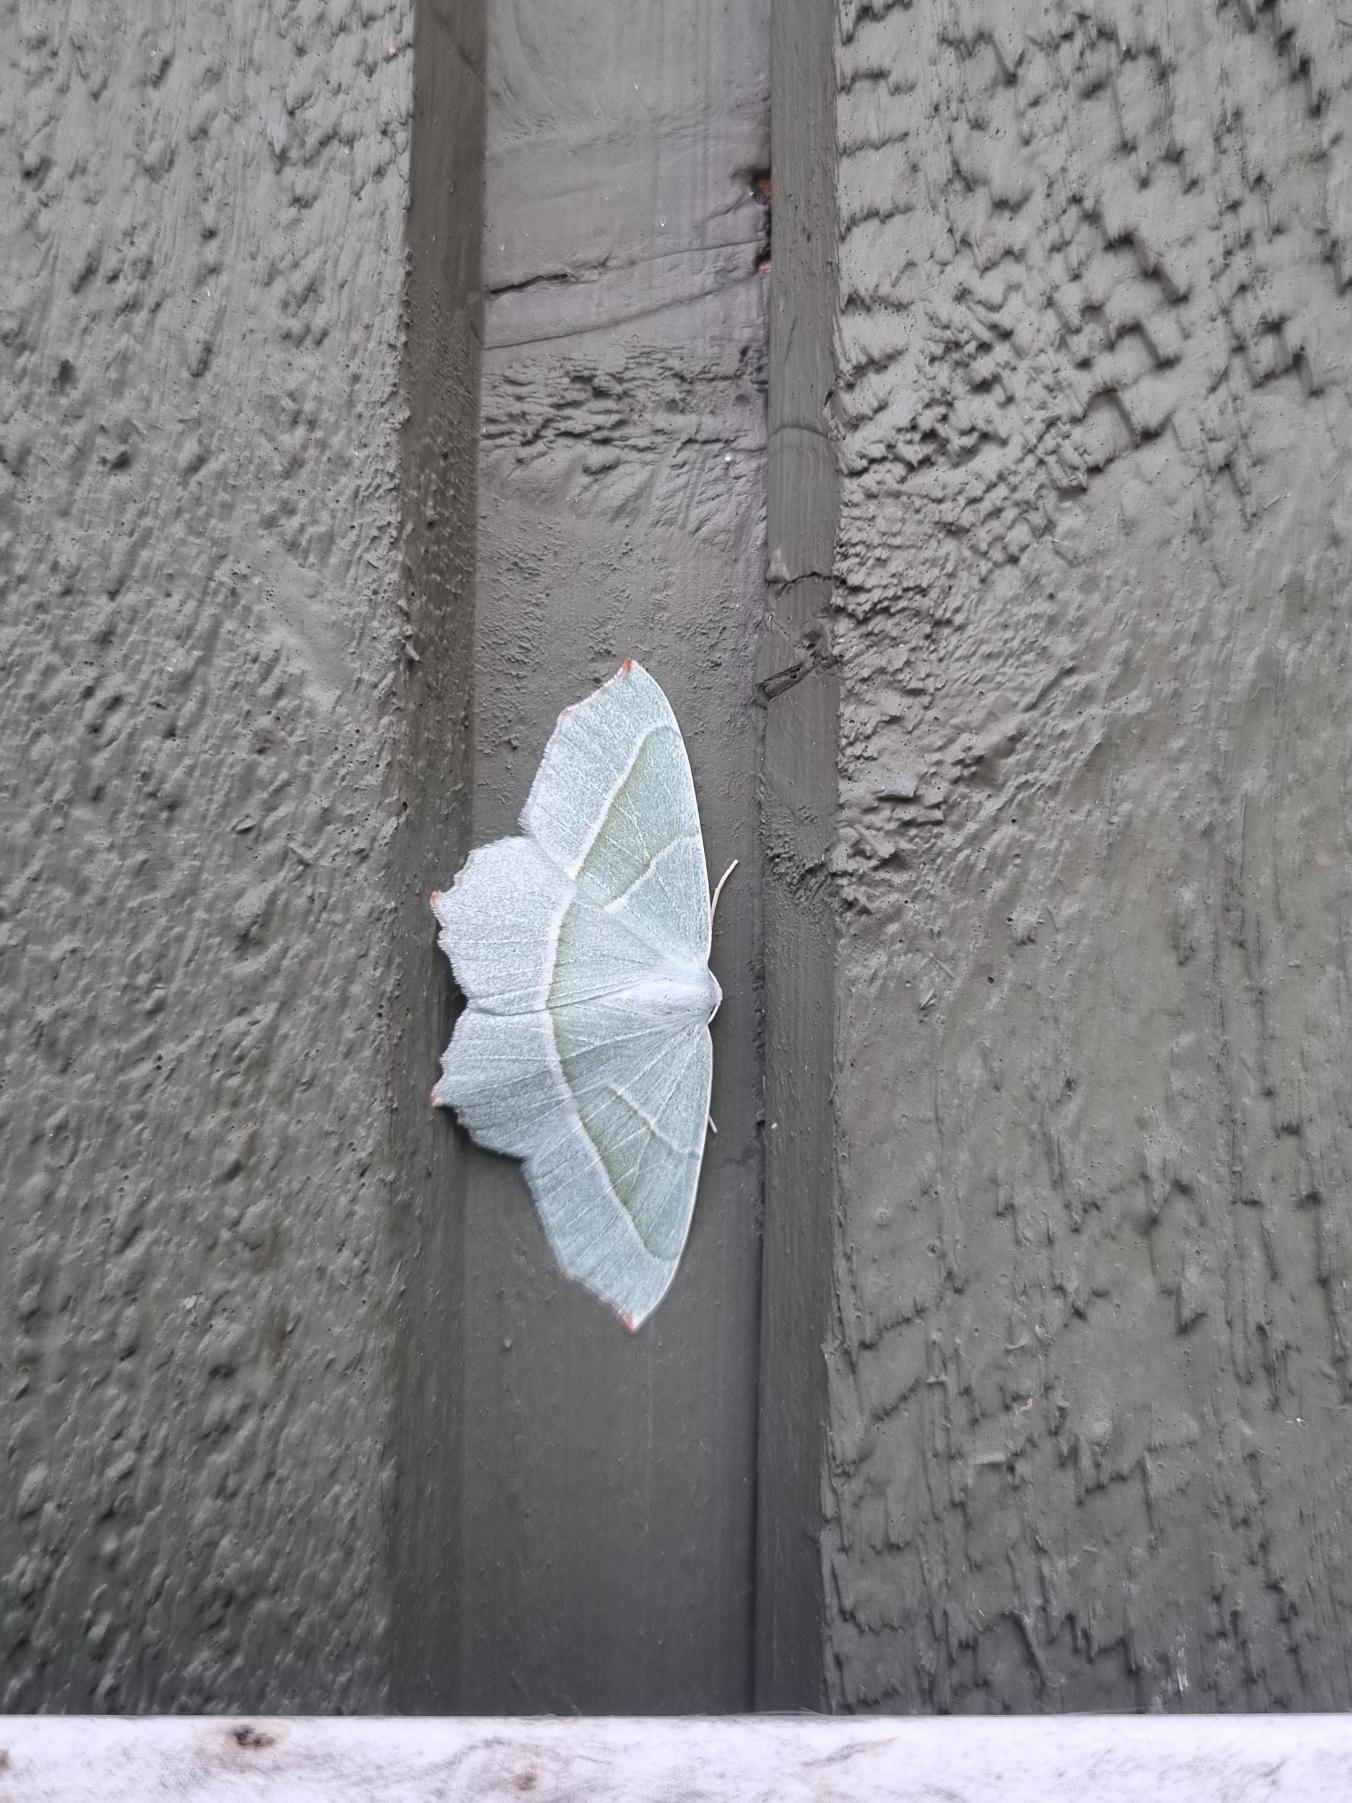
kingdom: Animalia
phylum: Arthropoda
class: Insecta
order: Lepidoptera
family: Geometridae
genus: Campaea
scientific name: Campaea margaritaria
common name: Perlemåler
